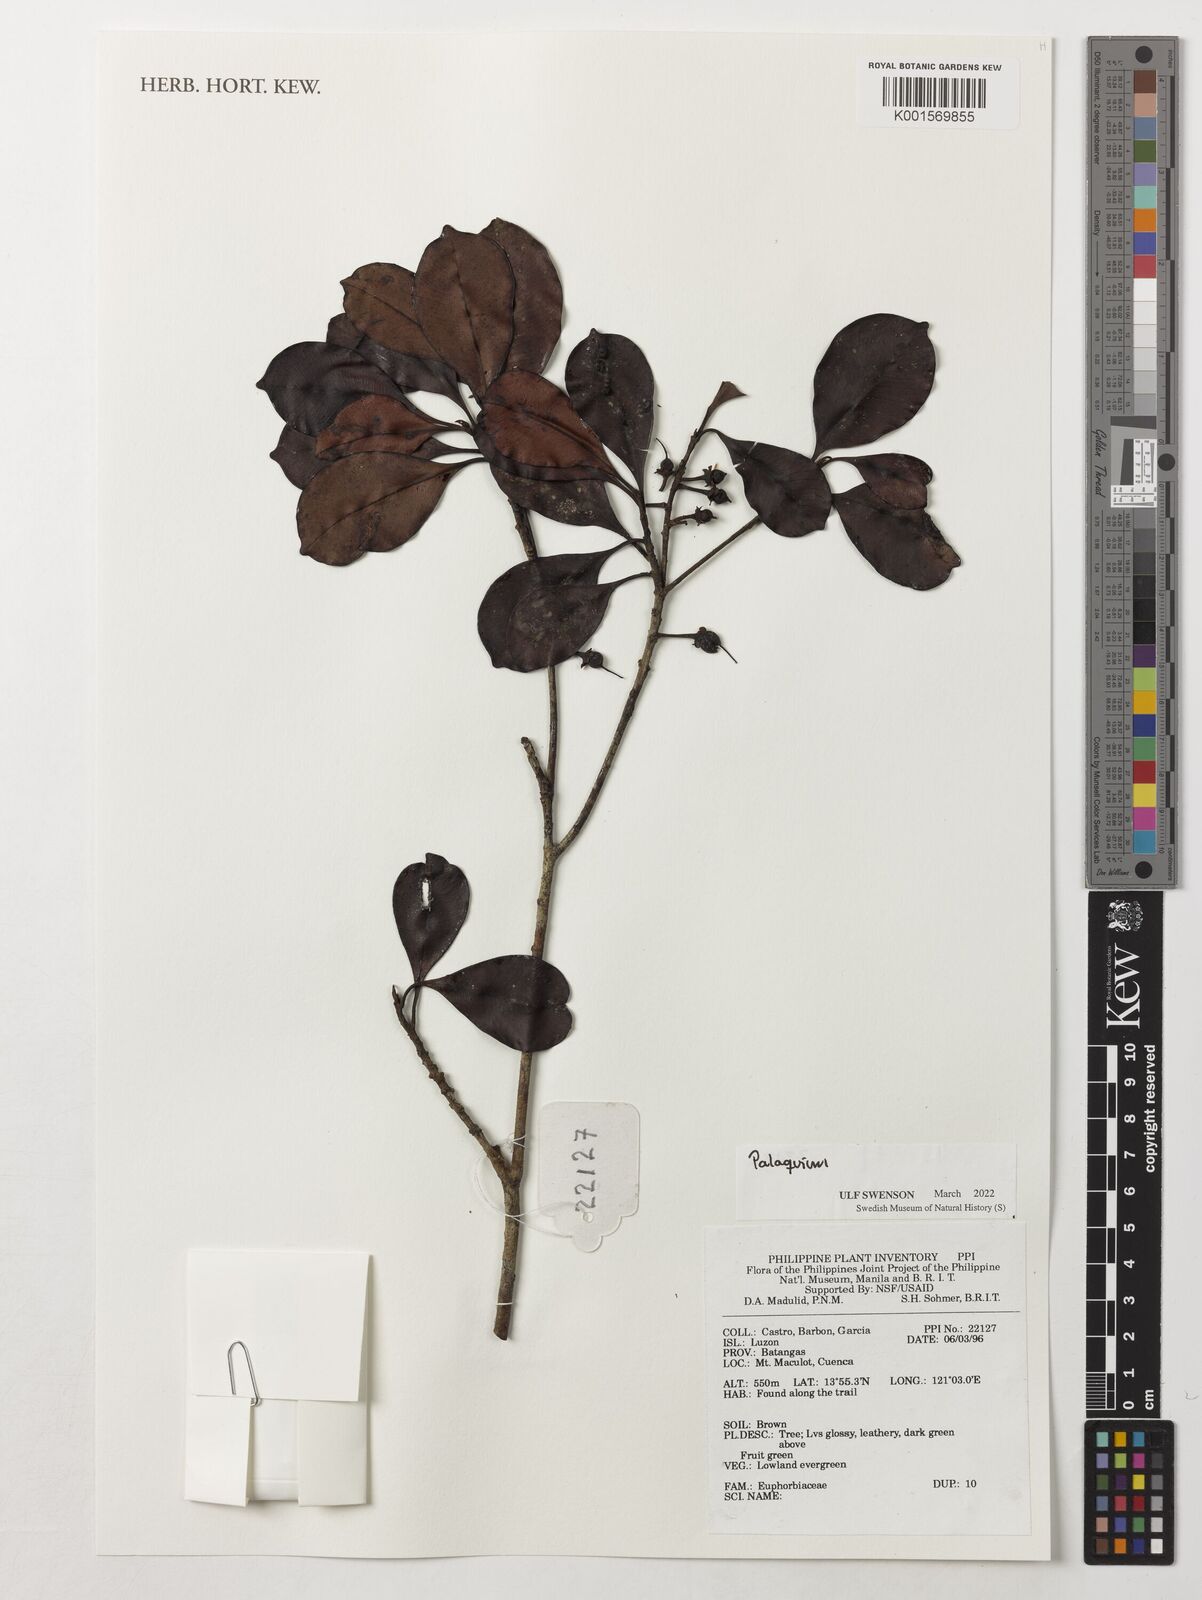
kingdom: Plantae
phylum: Tracheophyta
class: Magnoliopsida
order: Ericales
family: Sapotaceae
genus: Palaquium
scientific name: Palaquium
